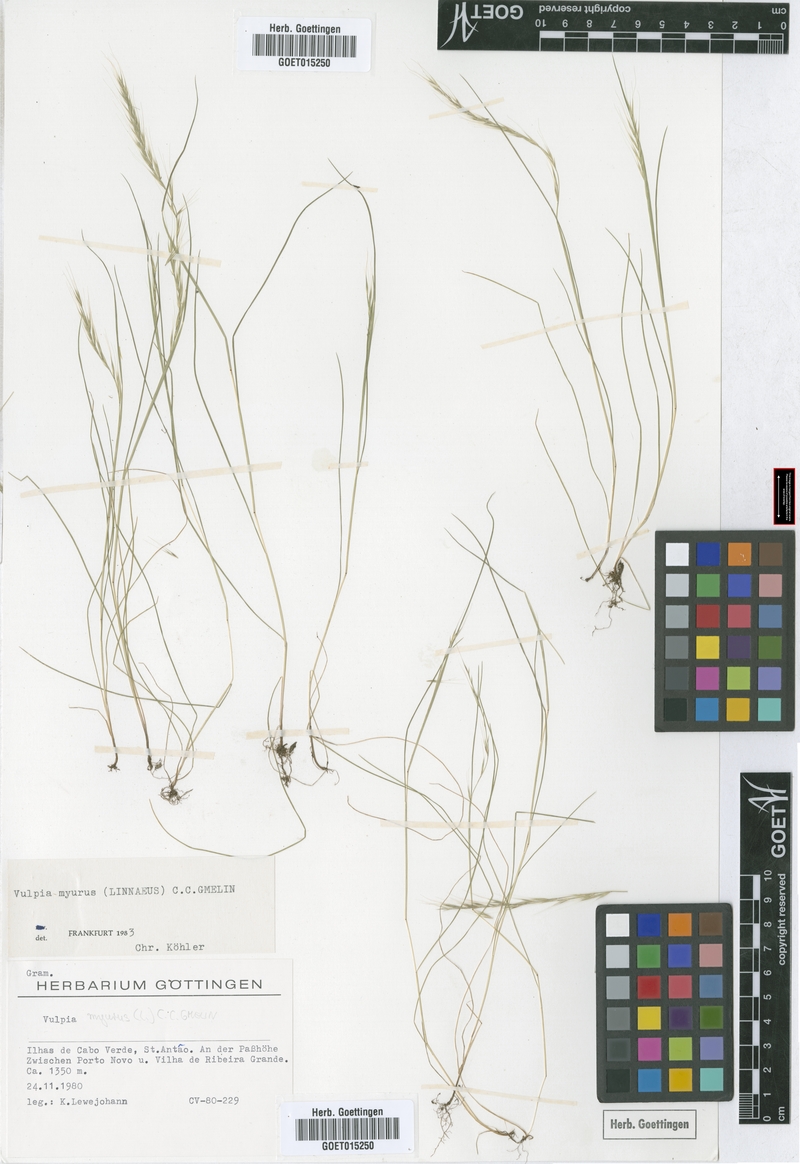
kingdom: Plantae
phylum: Tracheophyta
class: Liliopsida
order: Poales
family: Poaceae
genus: Festuca
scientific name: Festuca myuros
